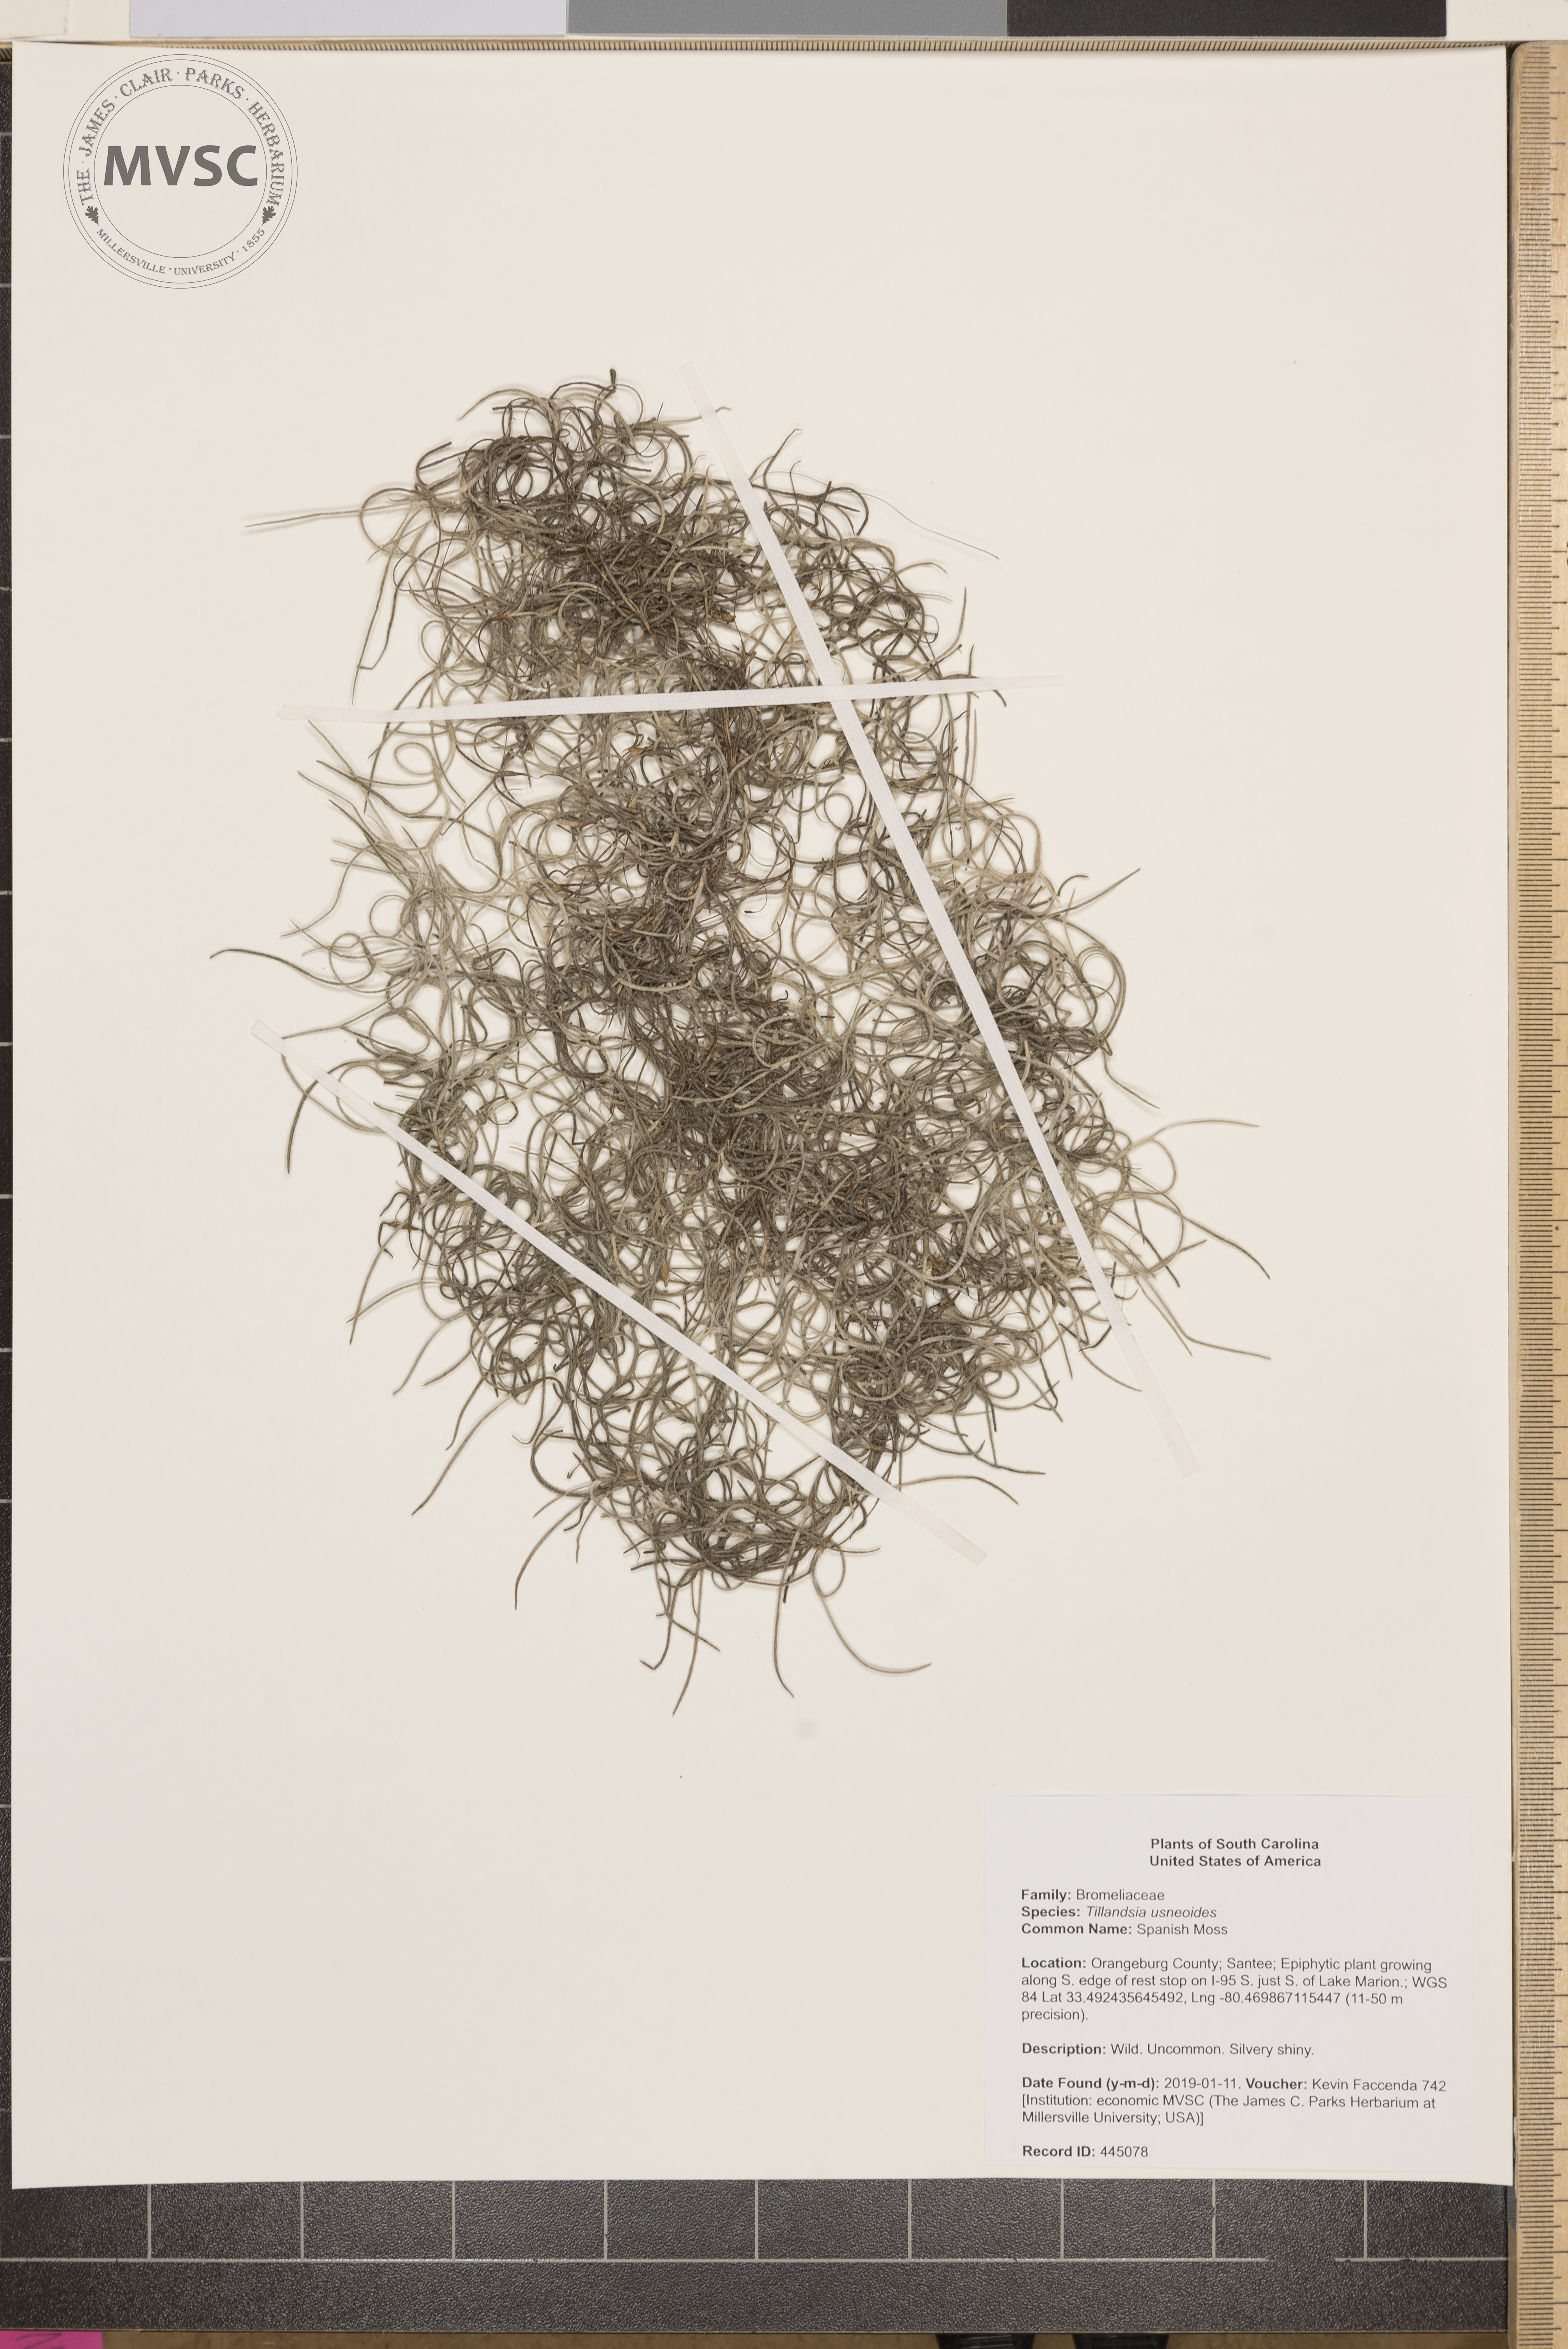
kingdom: Plantae
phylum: Tracheophyta
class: Liliopsida
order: Poales
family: Bromeliaceae
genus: Tillandsia
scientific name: Tillandsia usneoides
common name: Spanish Moss
